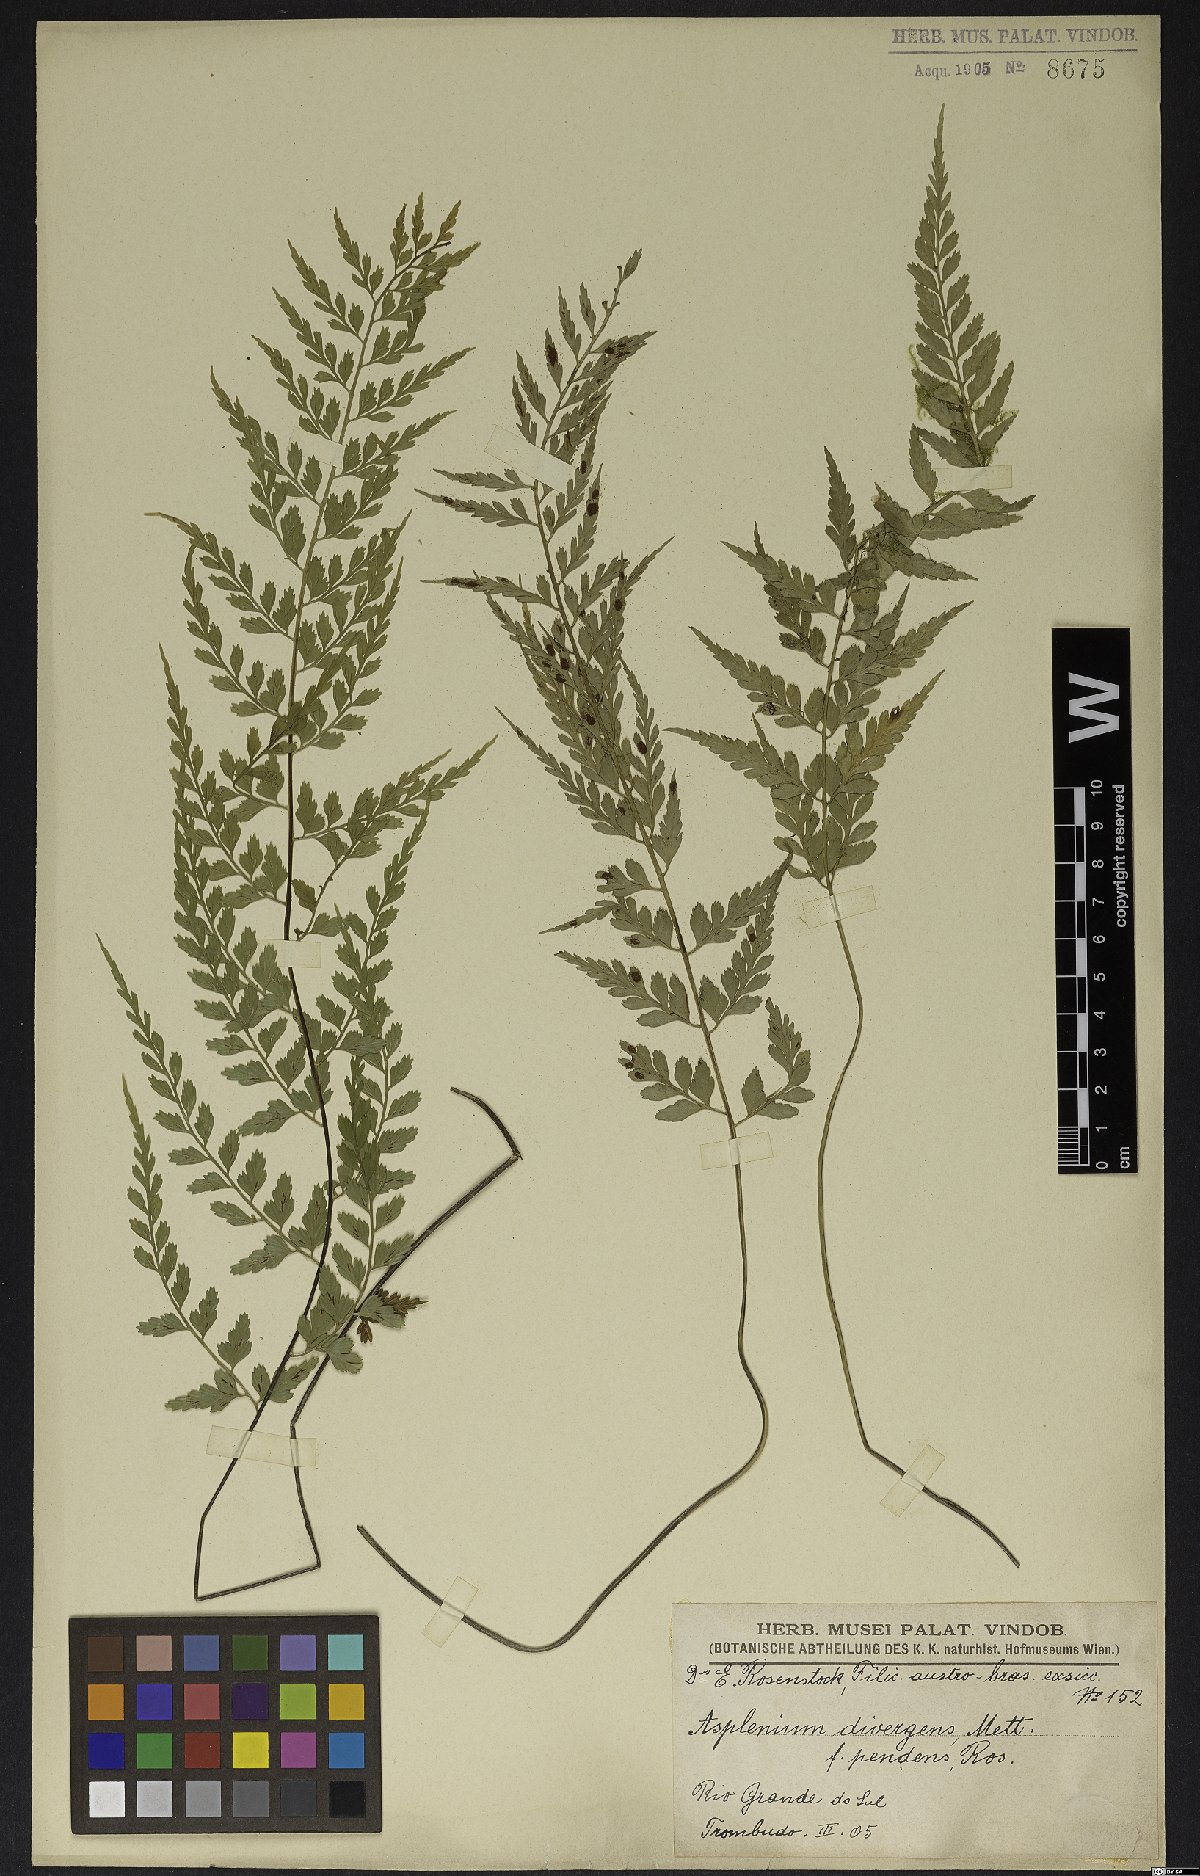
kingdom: Plantae
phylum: Tracheophyta
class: Polypodiopsida
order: Polypodiales
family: Aspleniaceae
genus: Asplenium
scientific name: Asplenium gastonis
